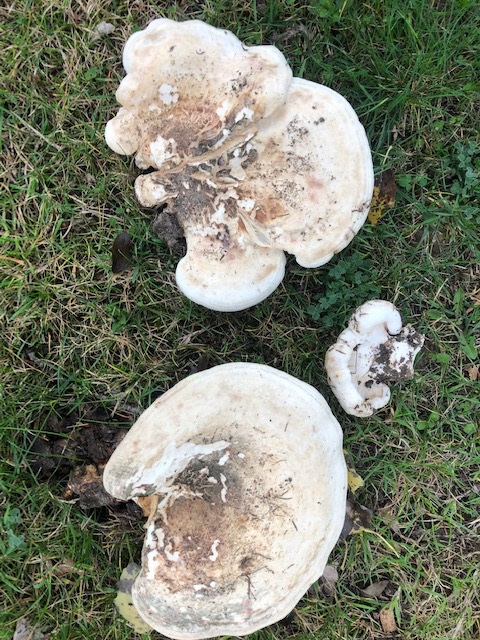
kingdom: Fungi
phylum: Basidiomycota
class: Agaricomycetes
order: Russulales
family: Russulaceae
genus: Lactarius
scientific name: Lactarius controversus
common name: rosabladet mælkehat
